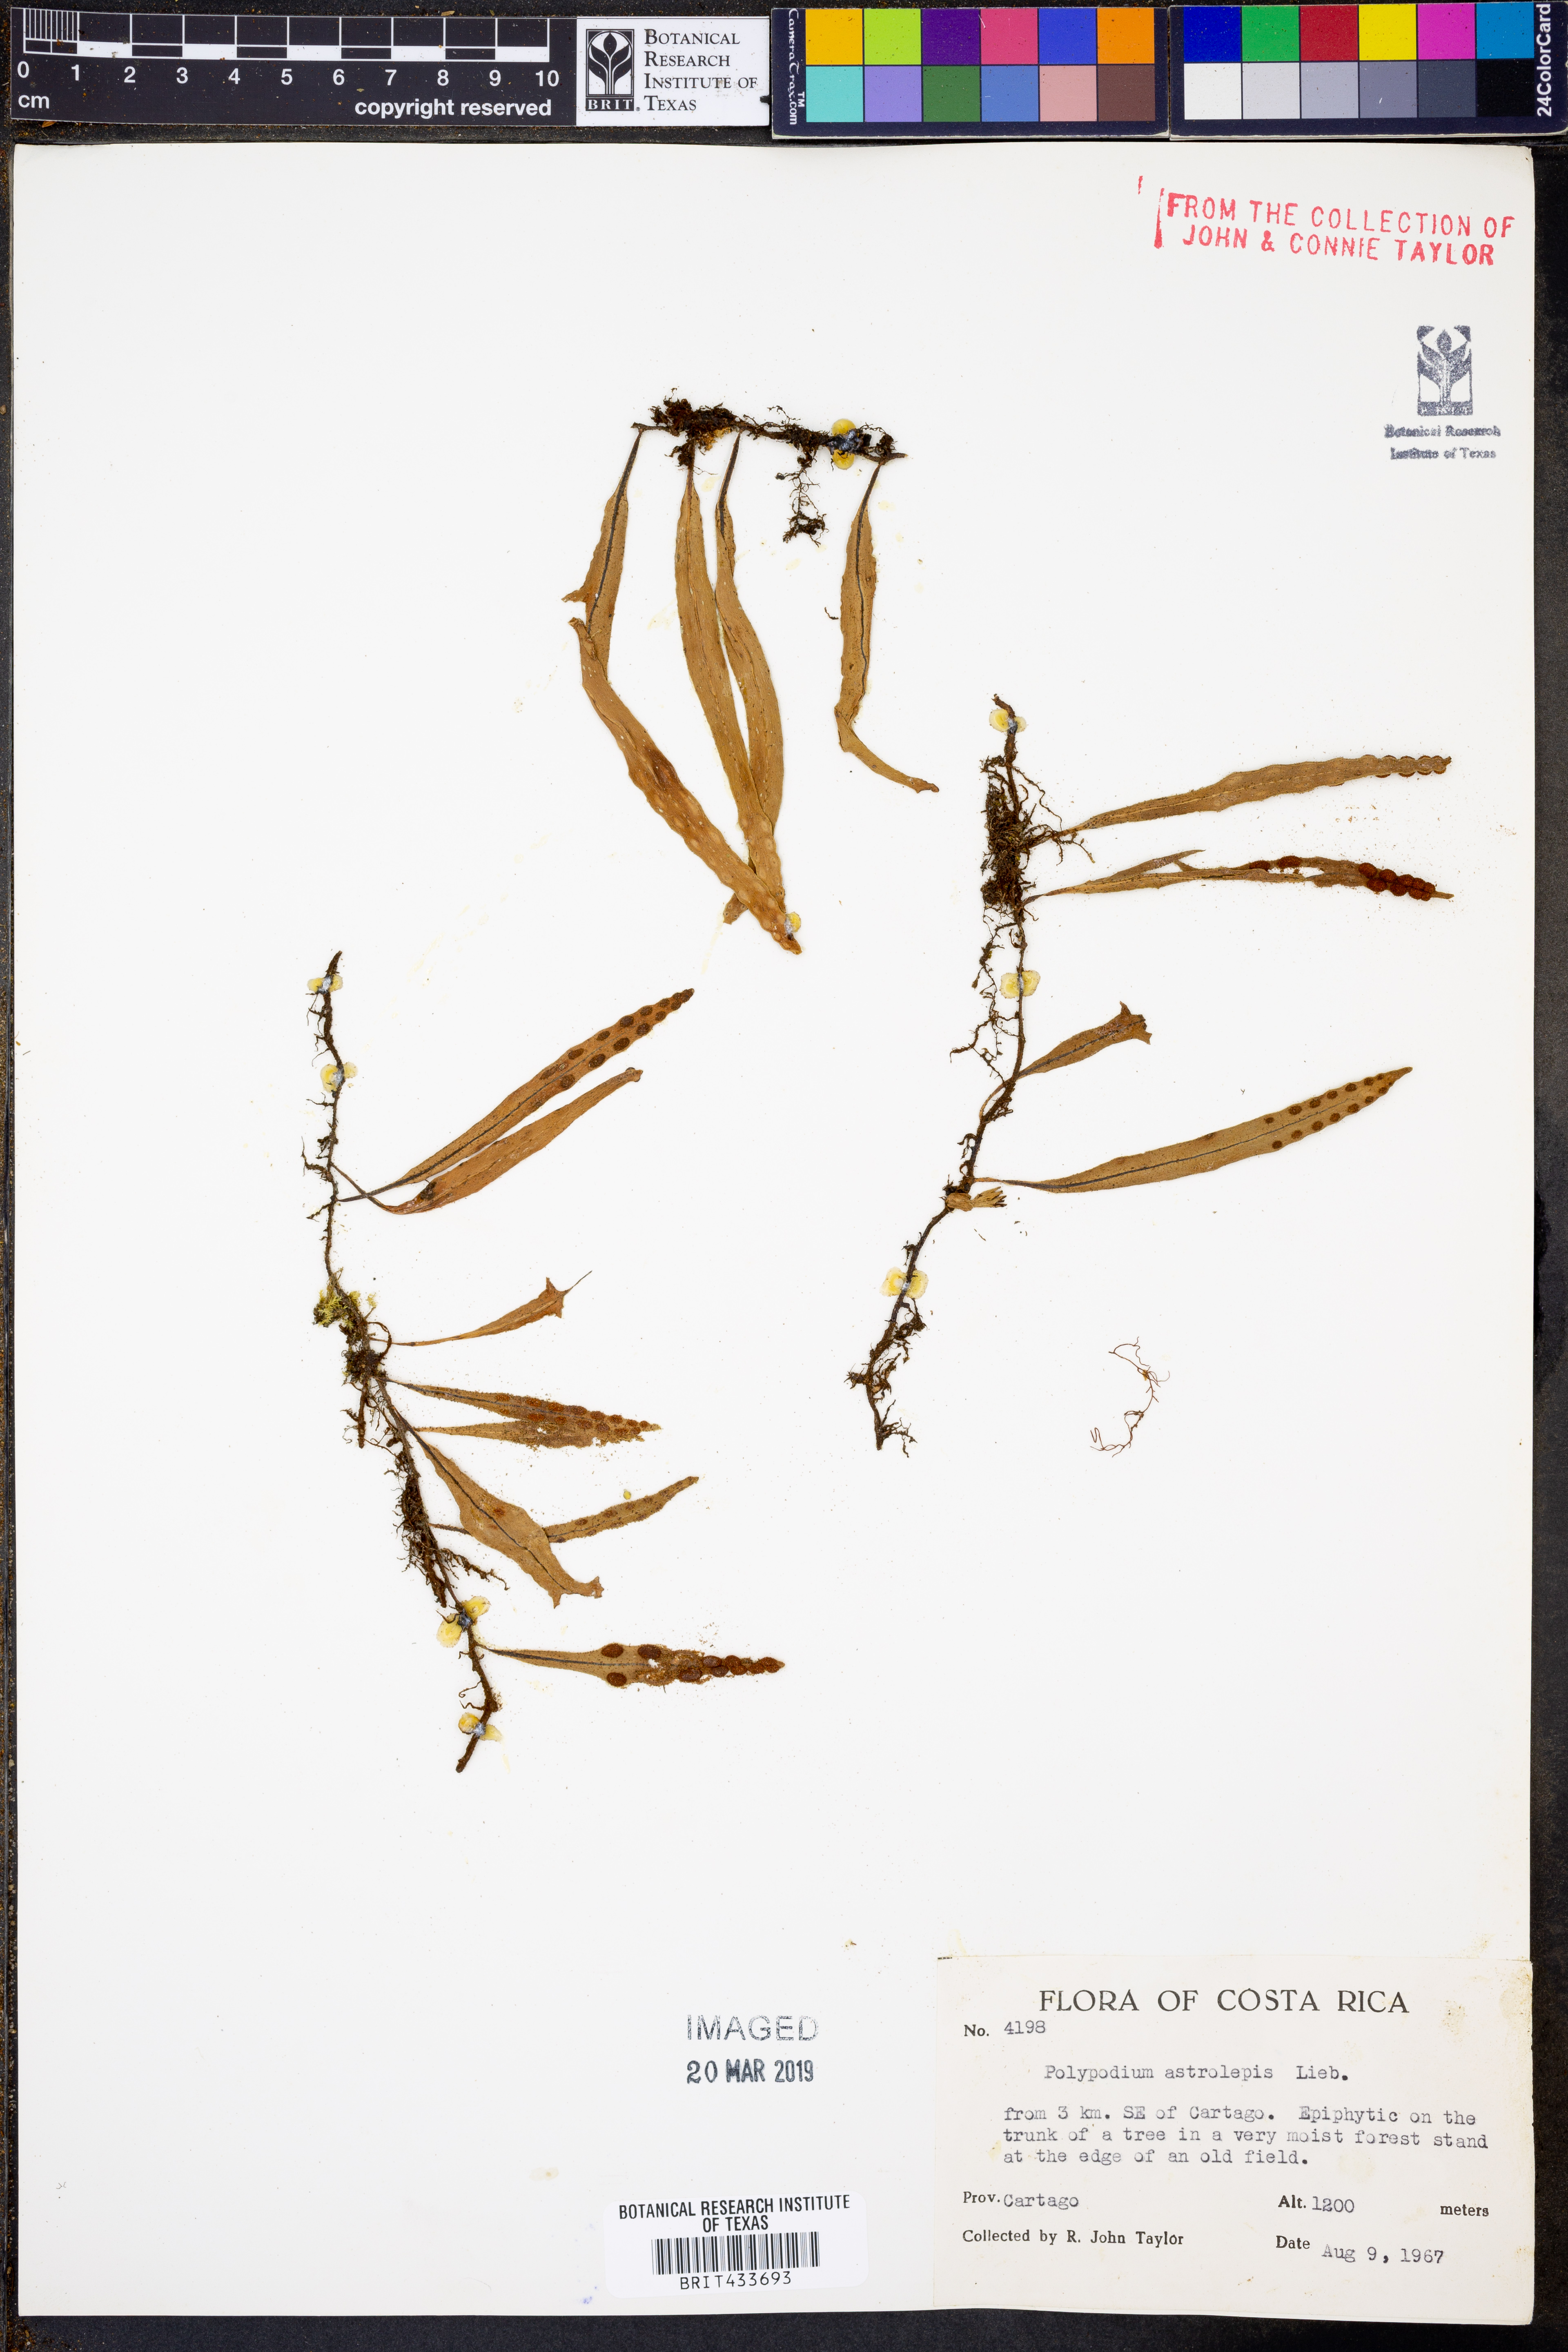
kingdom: Plantae
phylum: Tracheophyta
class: Polypodiopsida
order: Polypodiales
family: Polypodiaceae
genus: Pleopeltis
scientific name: Pleopeltis astrolepis
